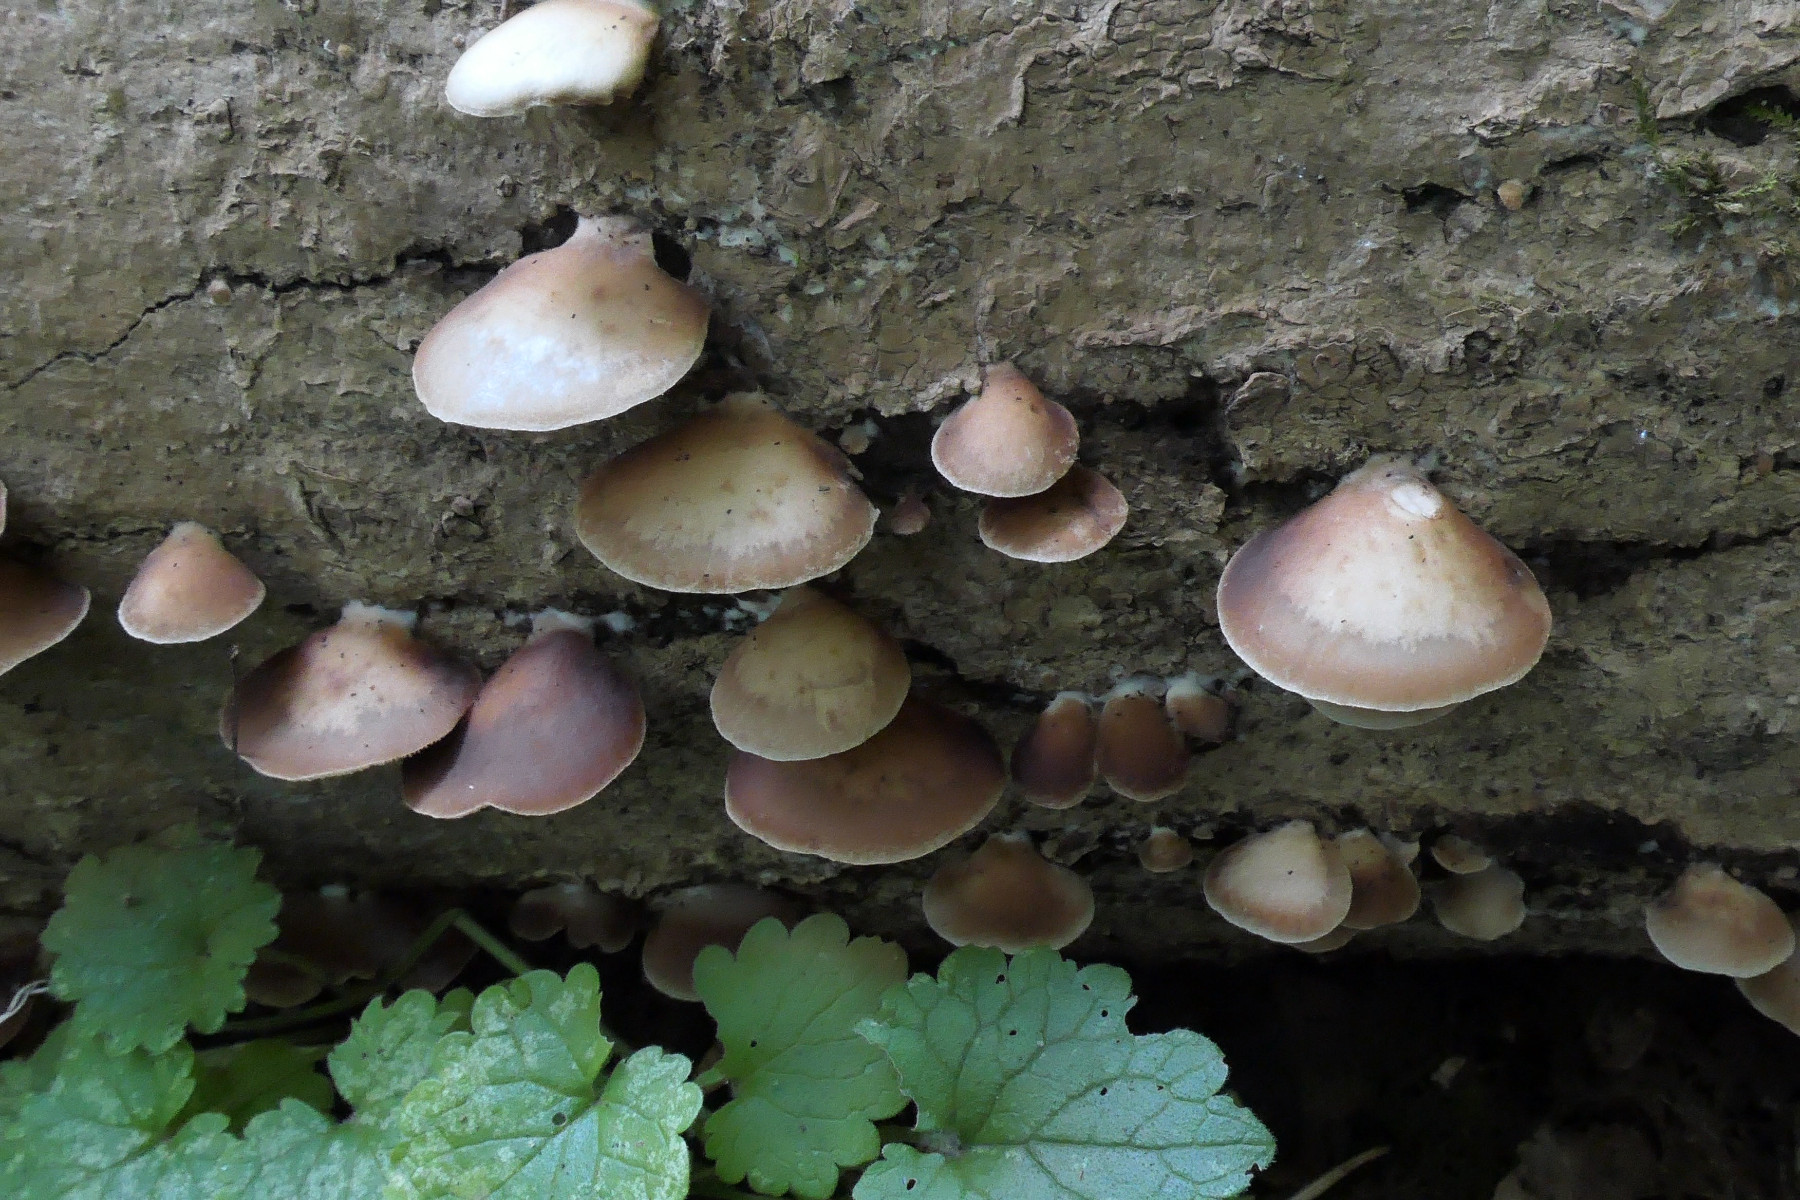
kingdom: Fungi
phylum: Basidiomycota
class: Agaricomycetes
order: Agaricales
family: Crepidotaceae
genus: Crepidotus
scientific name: Crepidotus mollis
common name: blød muslingesvamp
